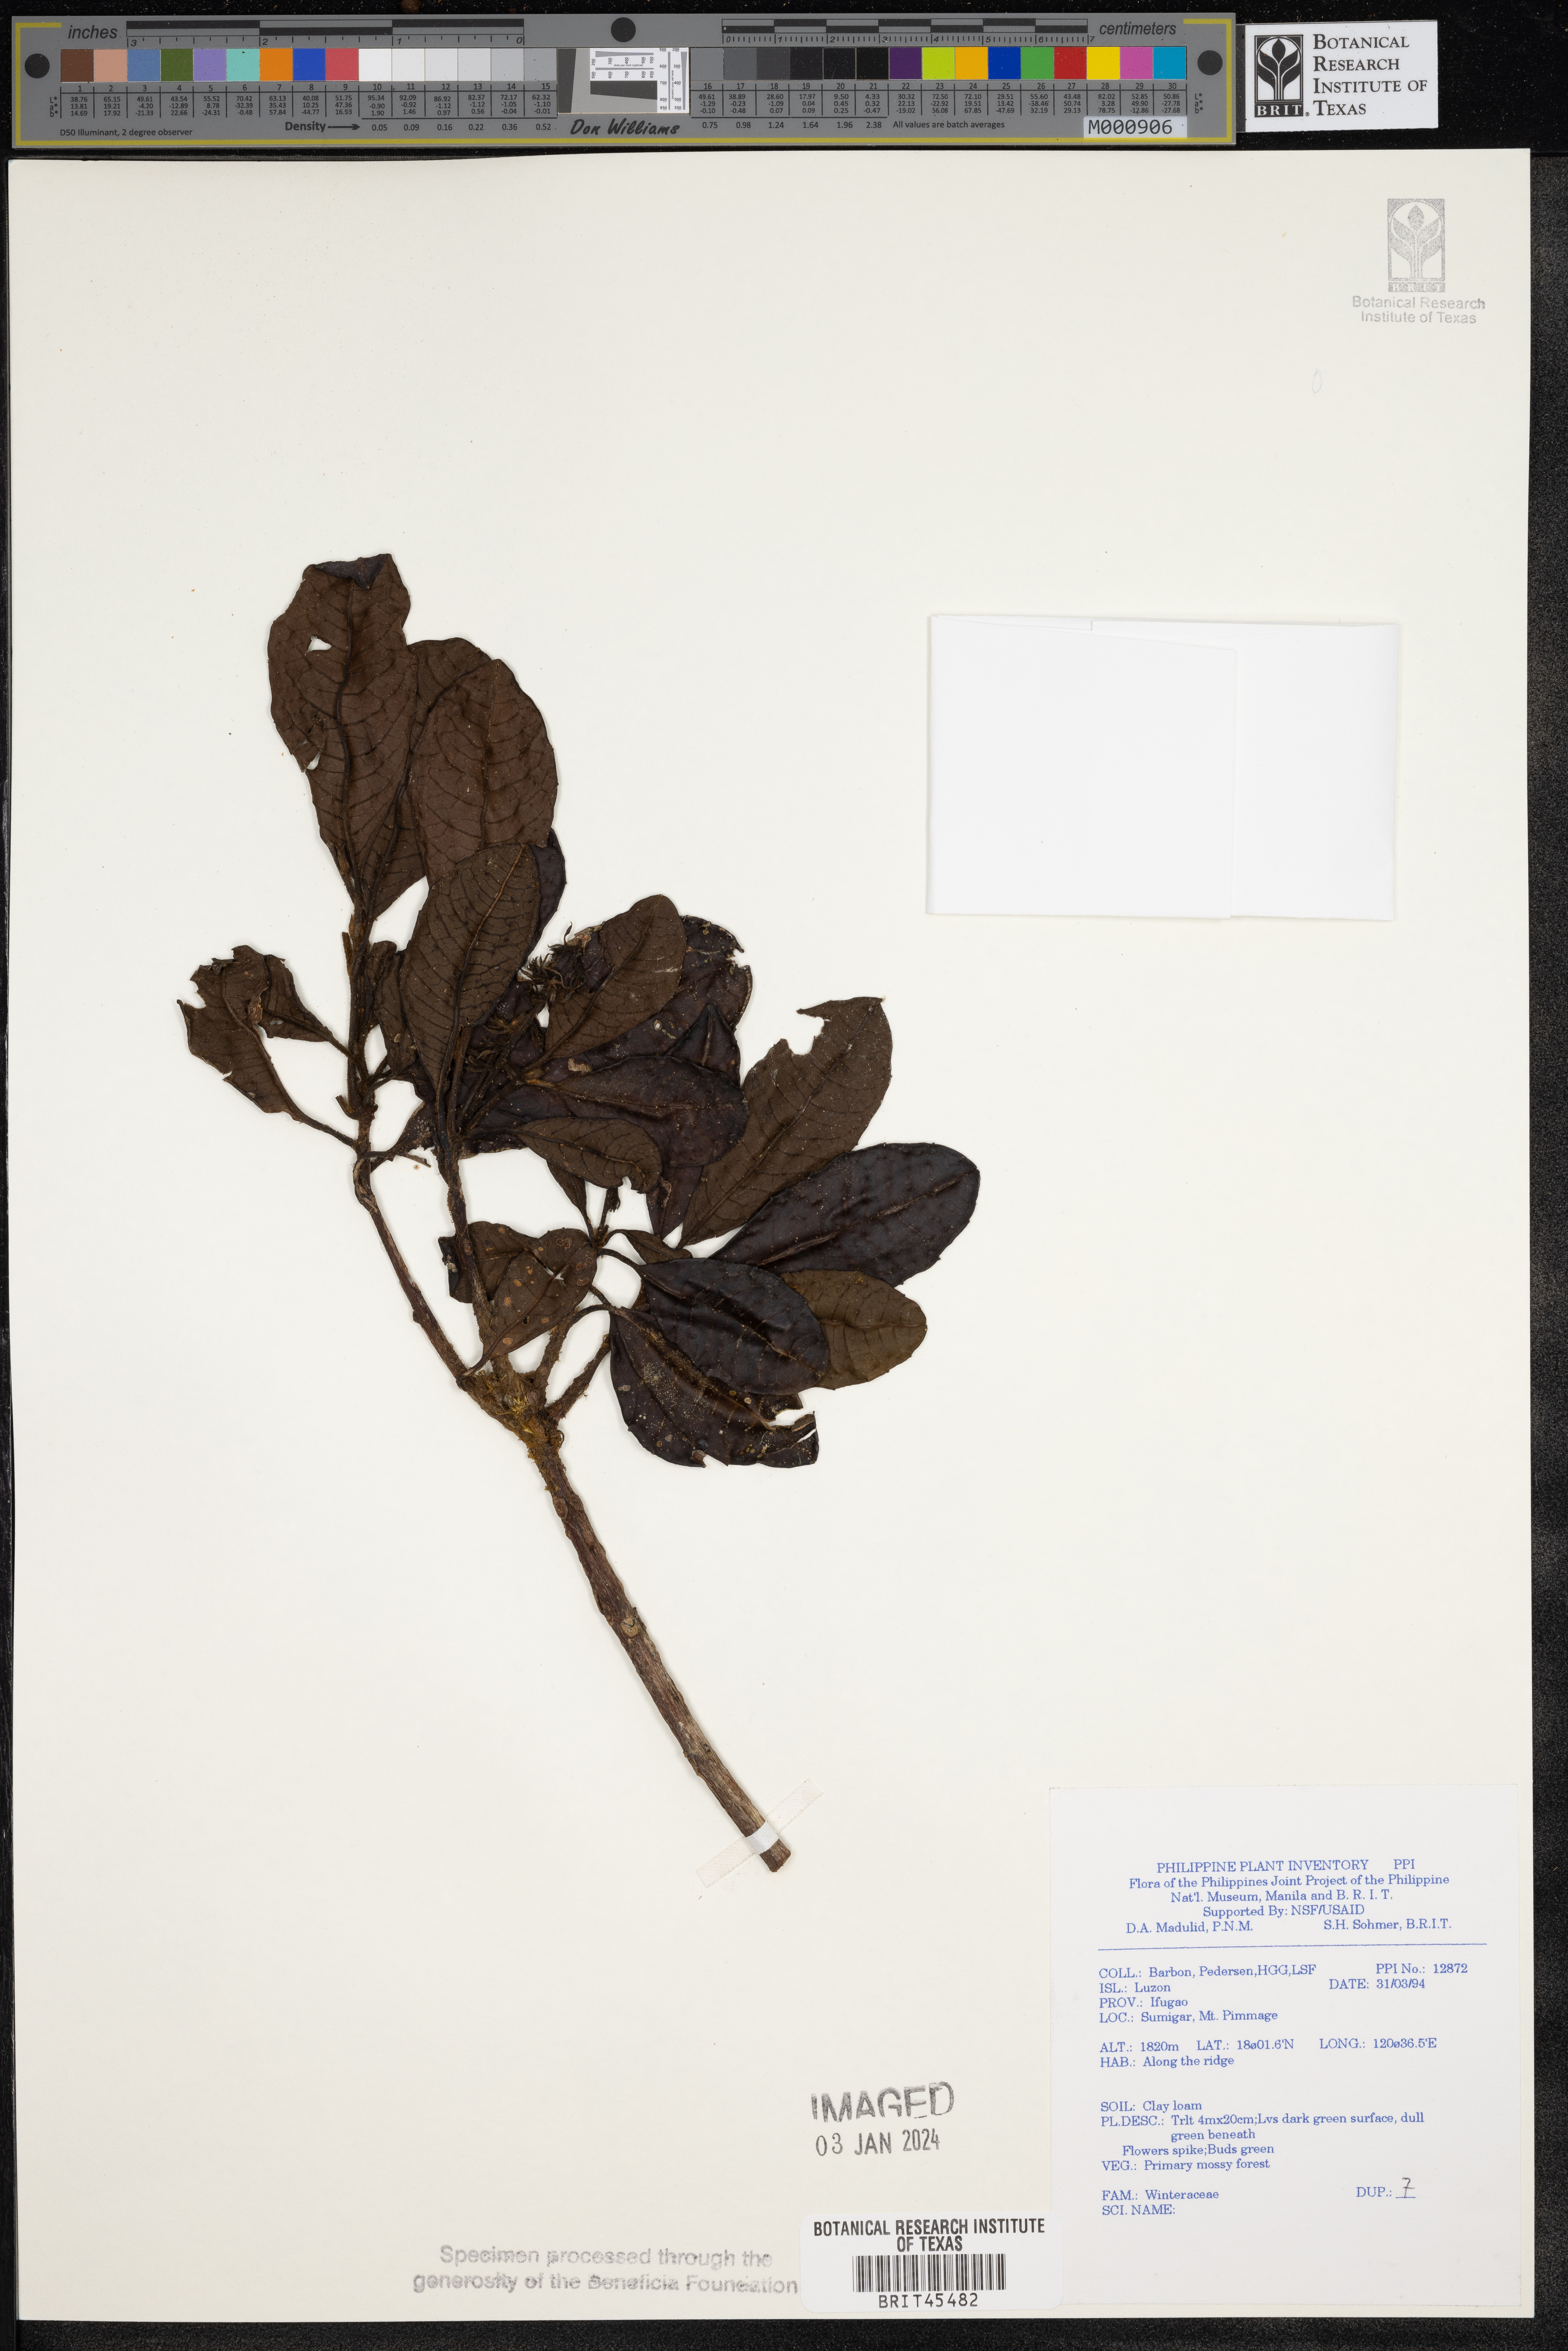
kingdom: Plantae
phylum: Tracheophyta
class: Magnoliopsida
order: Canellales
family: Winteraceae
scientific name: Winteraceae
